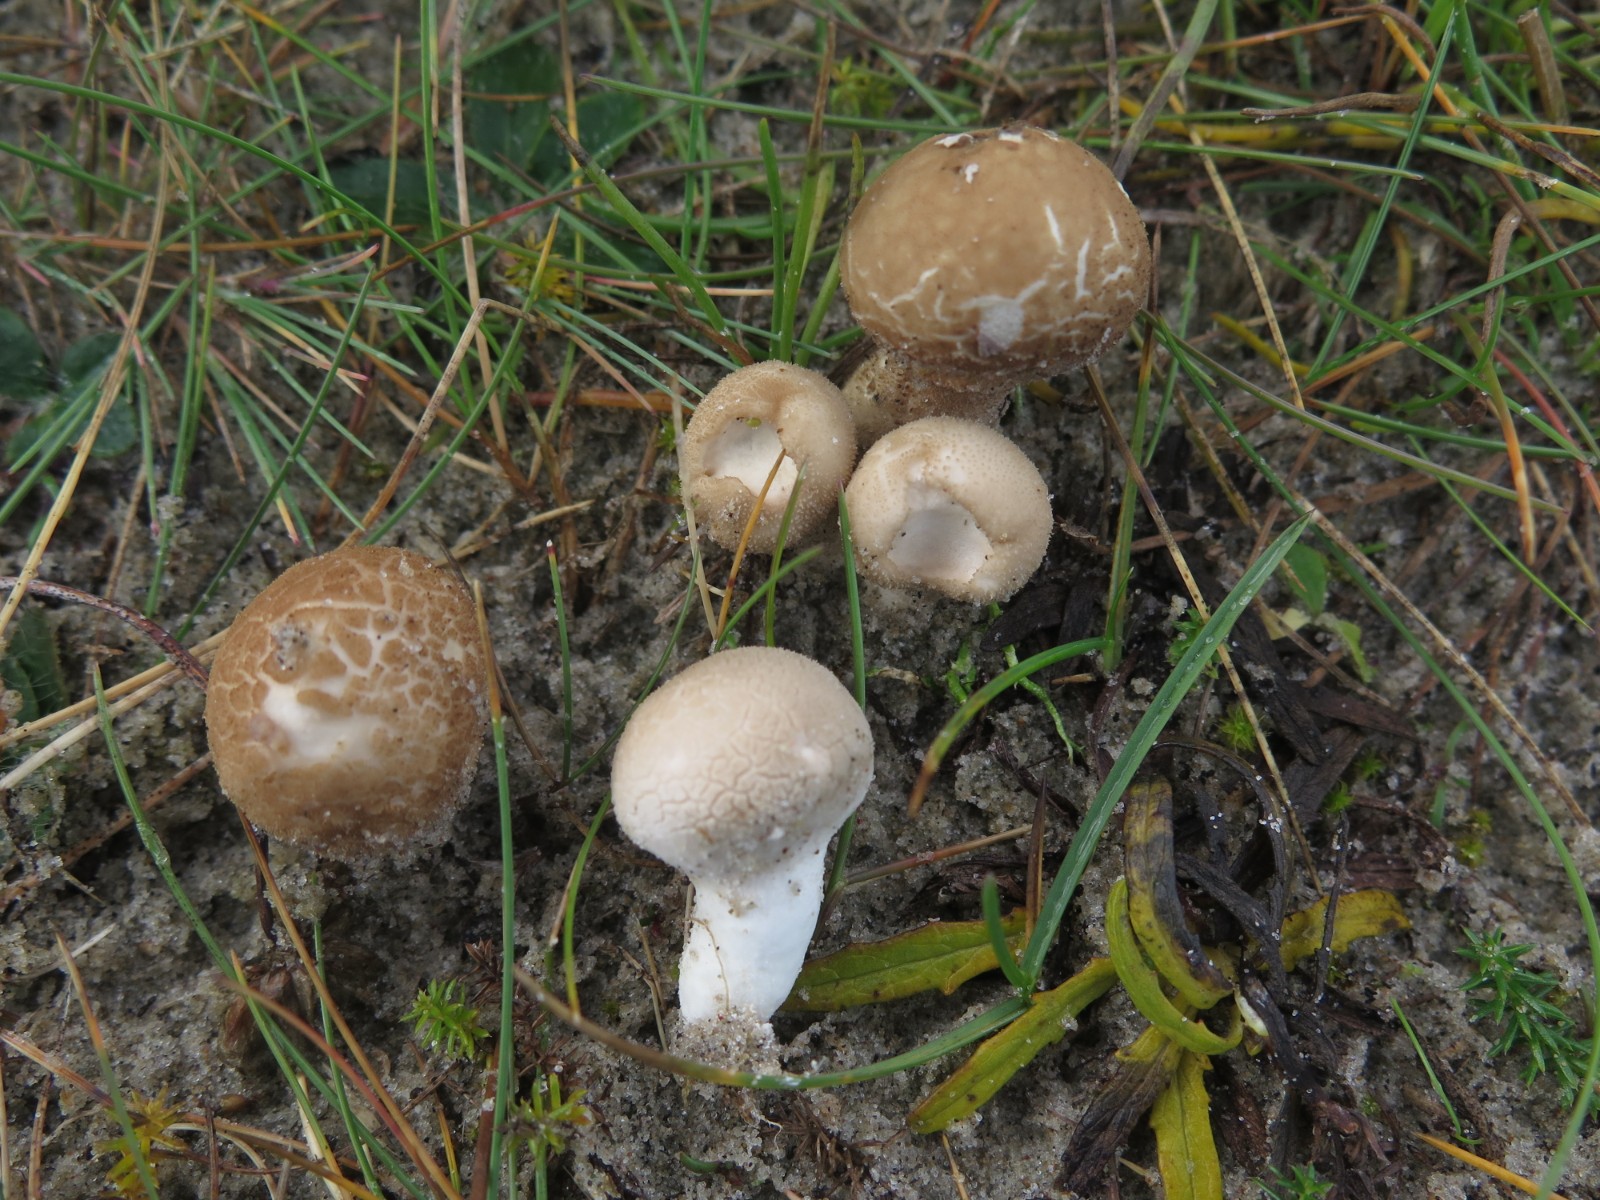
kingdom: Fungi
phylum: Basidiomycota
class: Agaricomycetes
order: Agaricales
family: Lycoperdaceae
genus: Lycoperdon
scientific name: Lycoperdon lividum
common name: mark-støvbold
